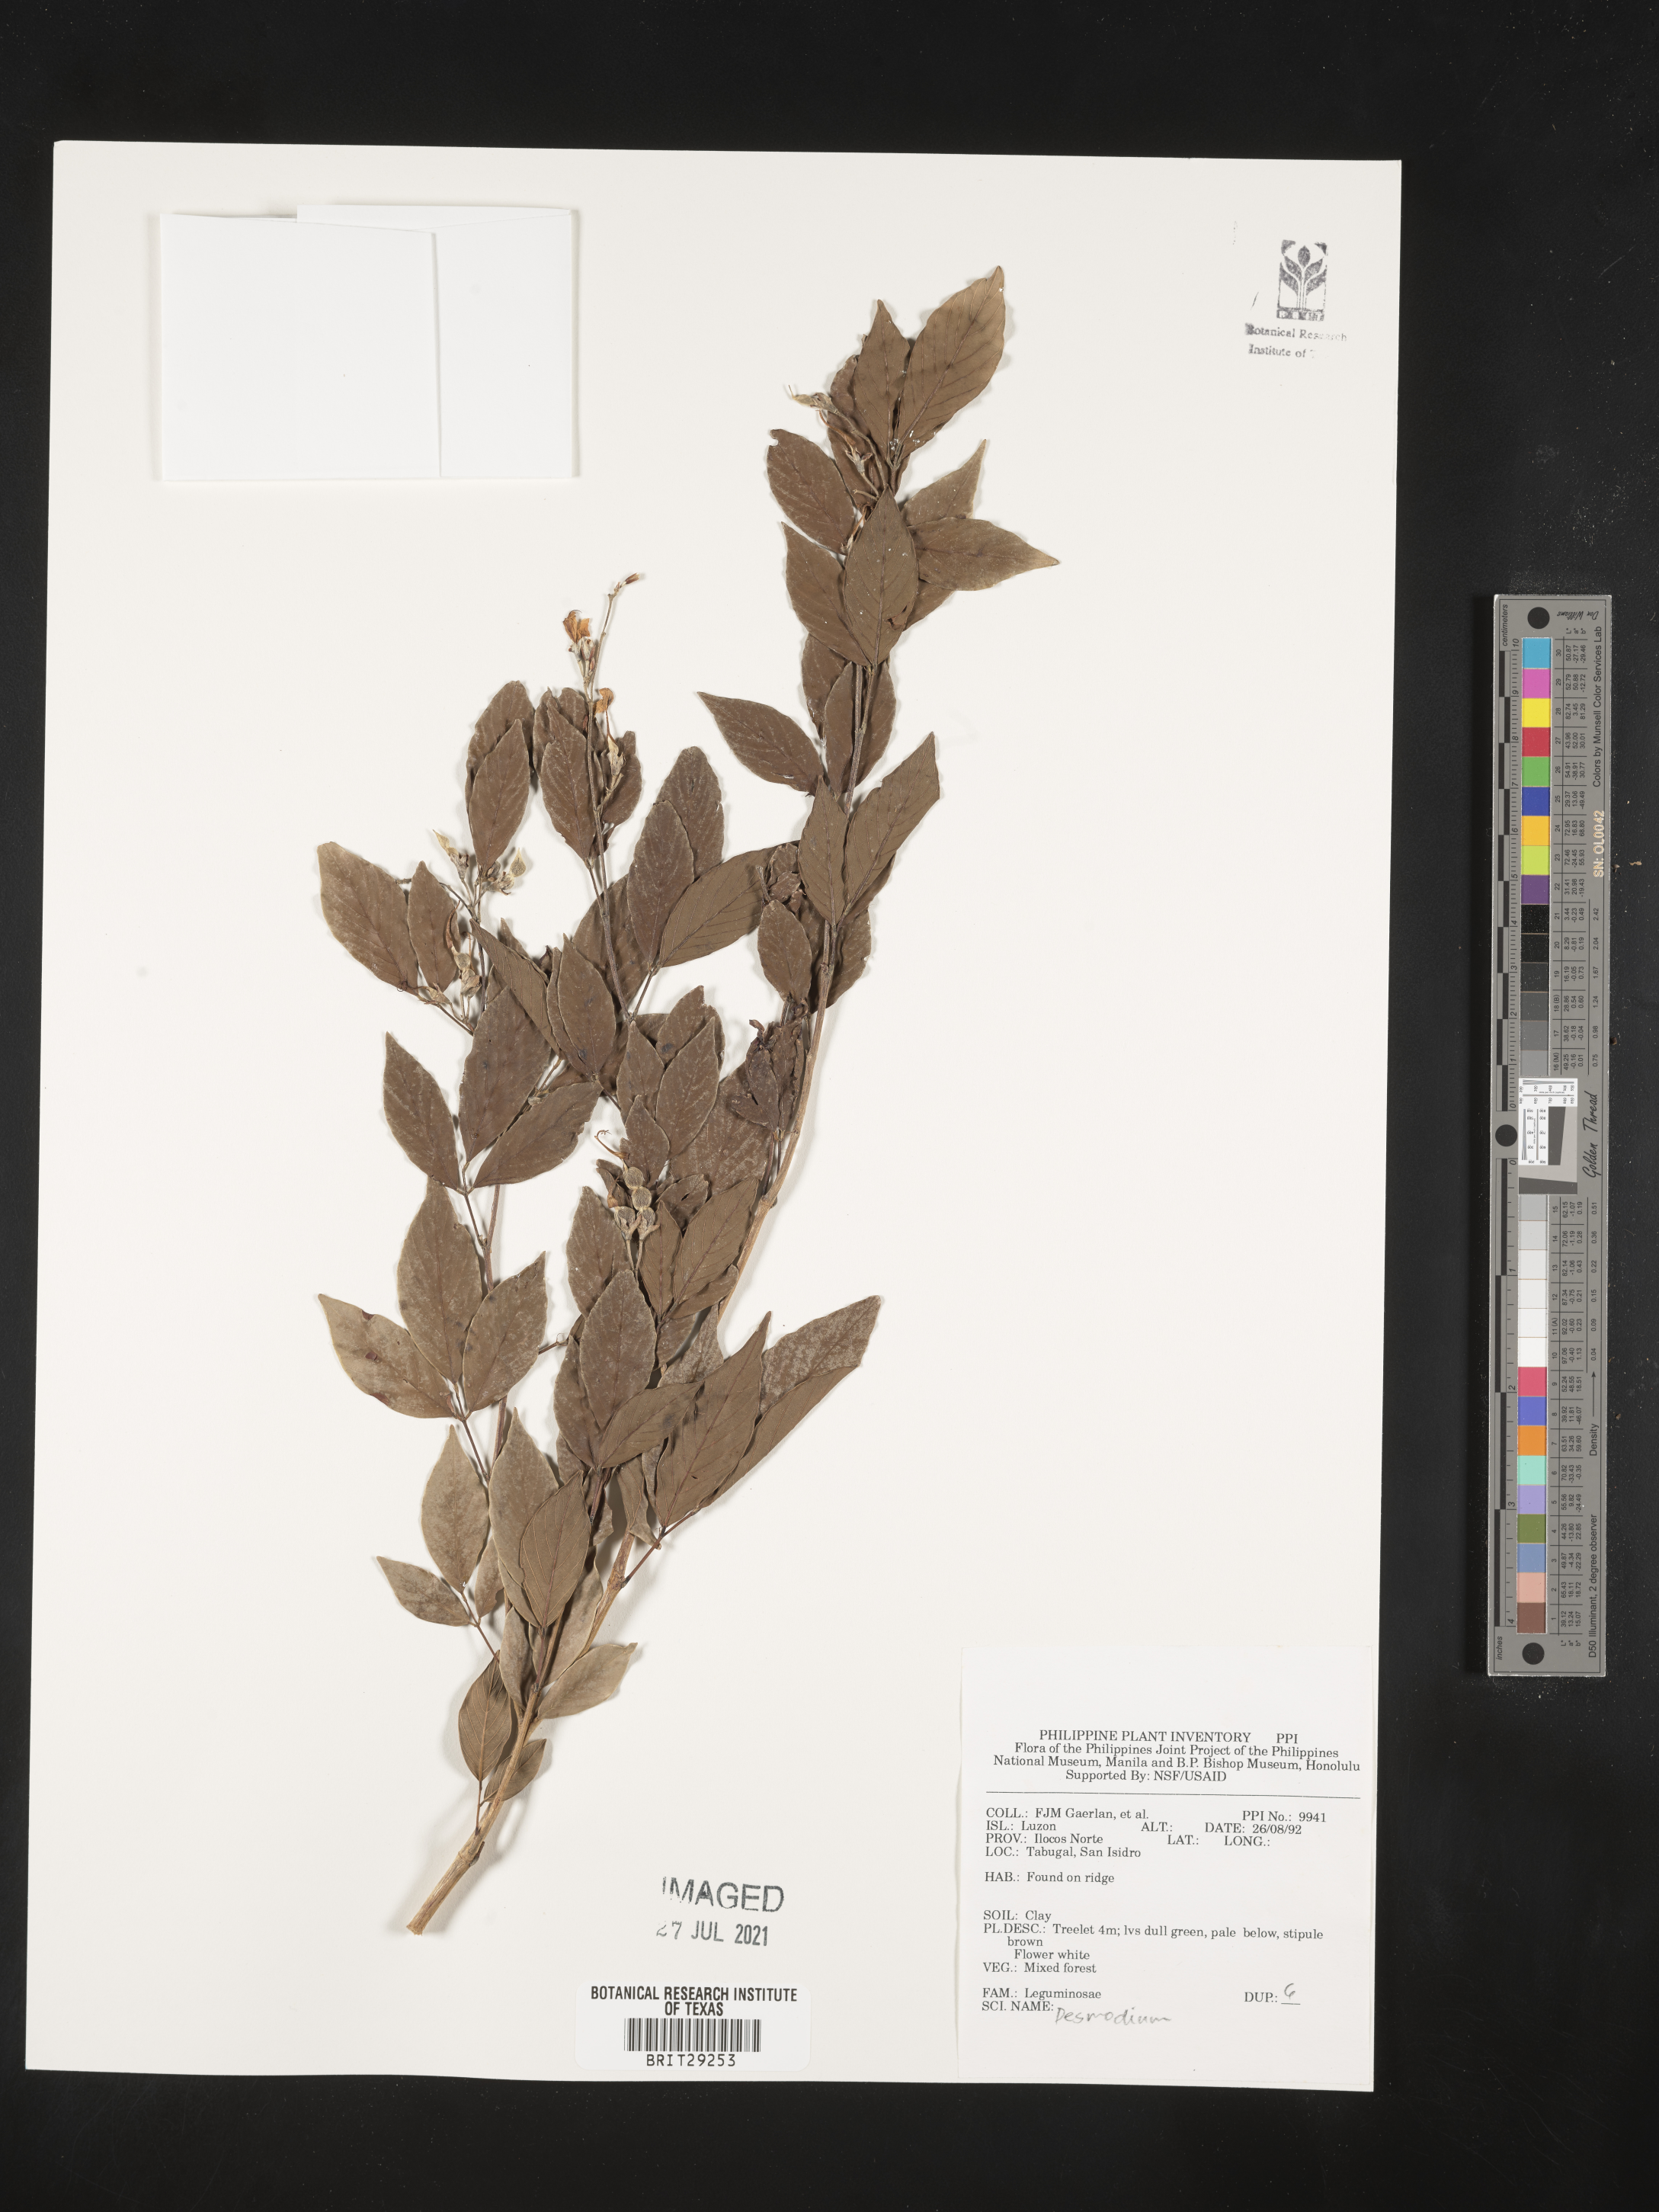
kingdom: Plantae
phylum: Tracheophyta
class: Magnoliopsida
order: Fabales
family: Fabaceae
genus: Desmodium
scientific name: Desmodium
